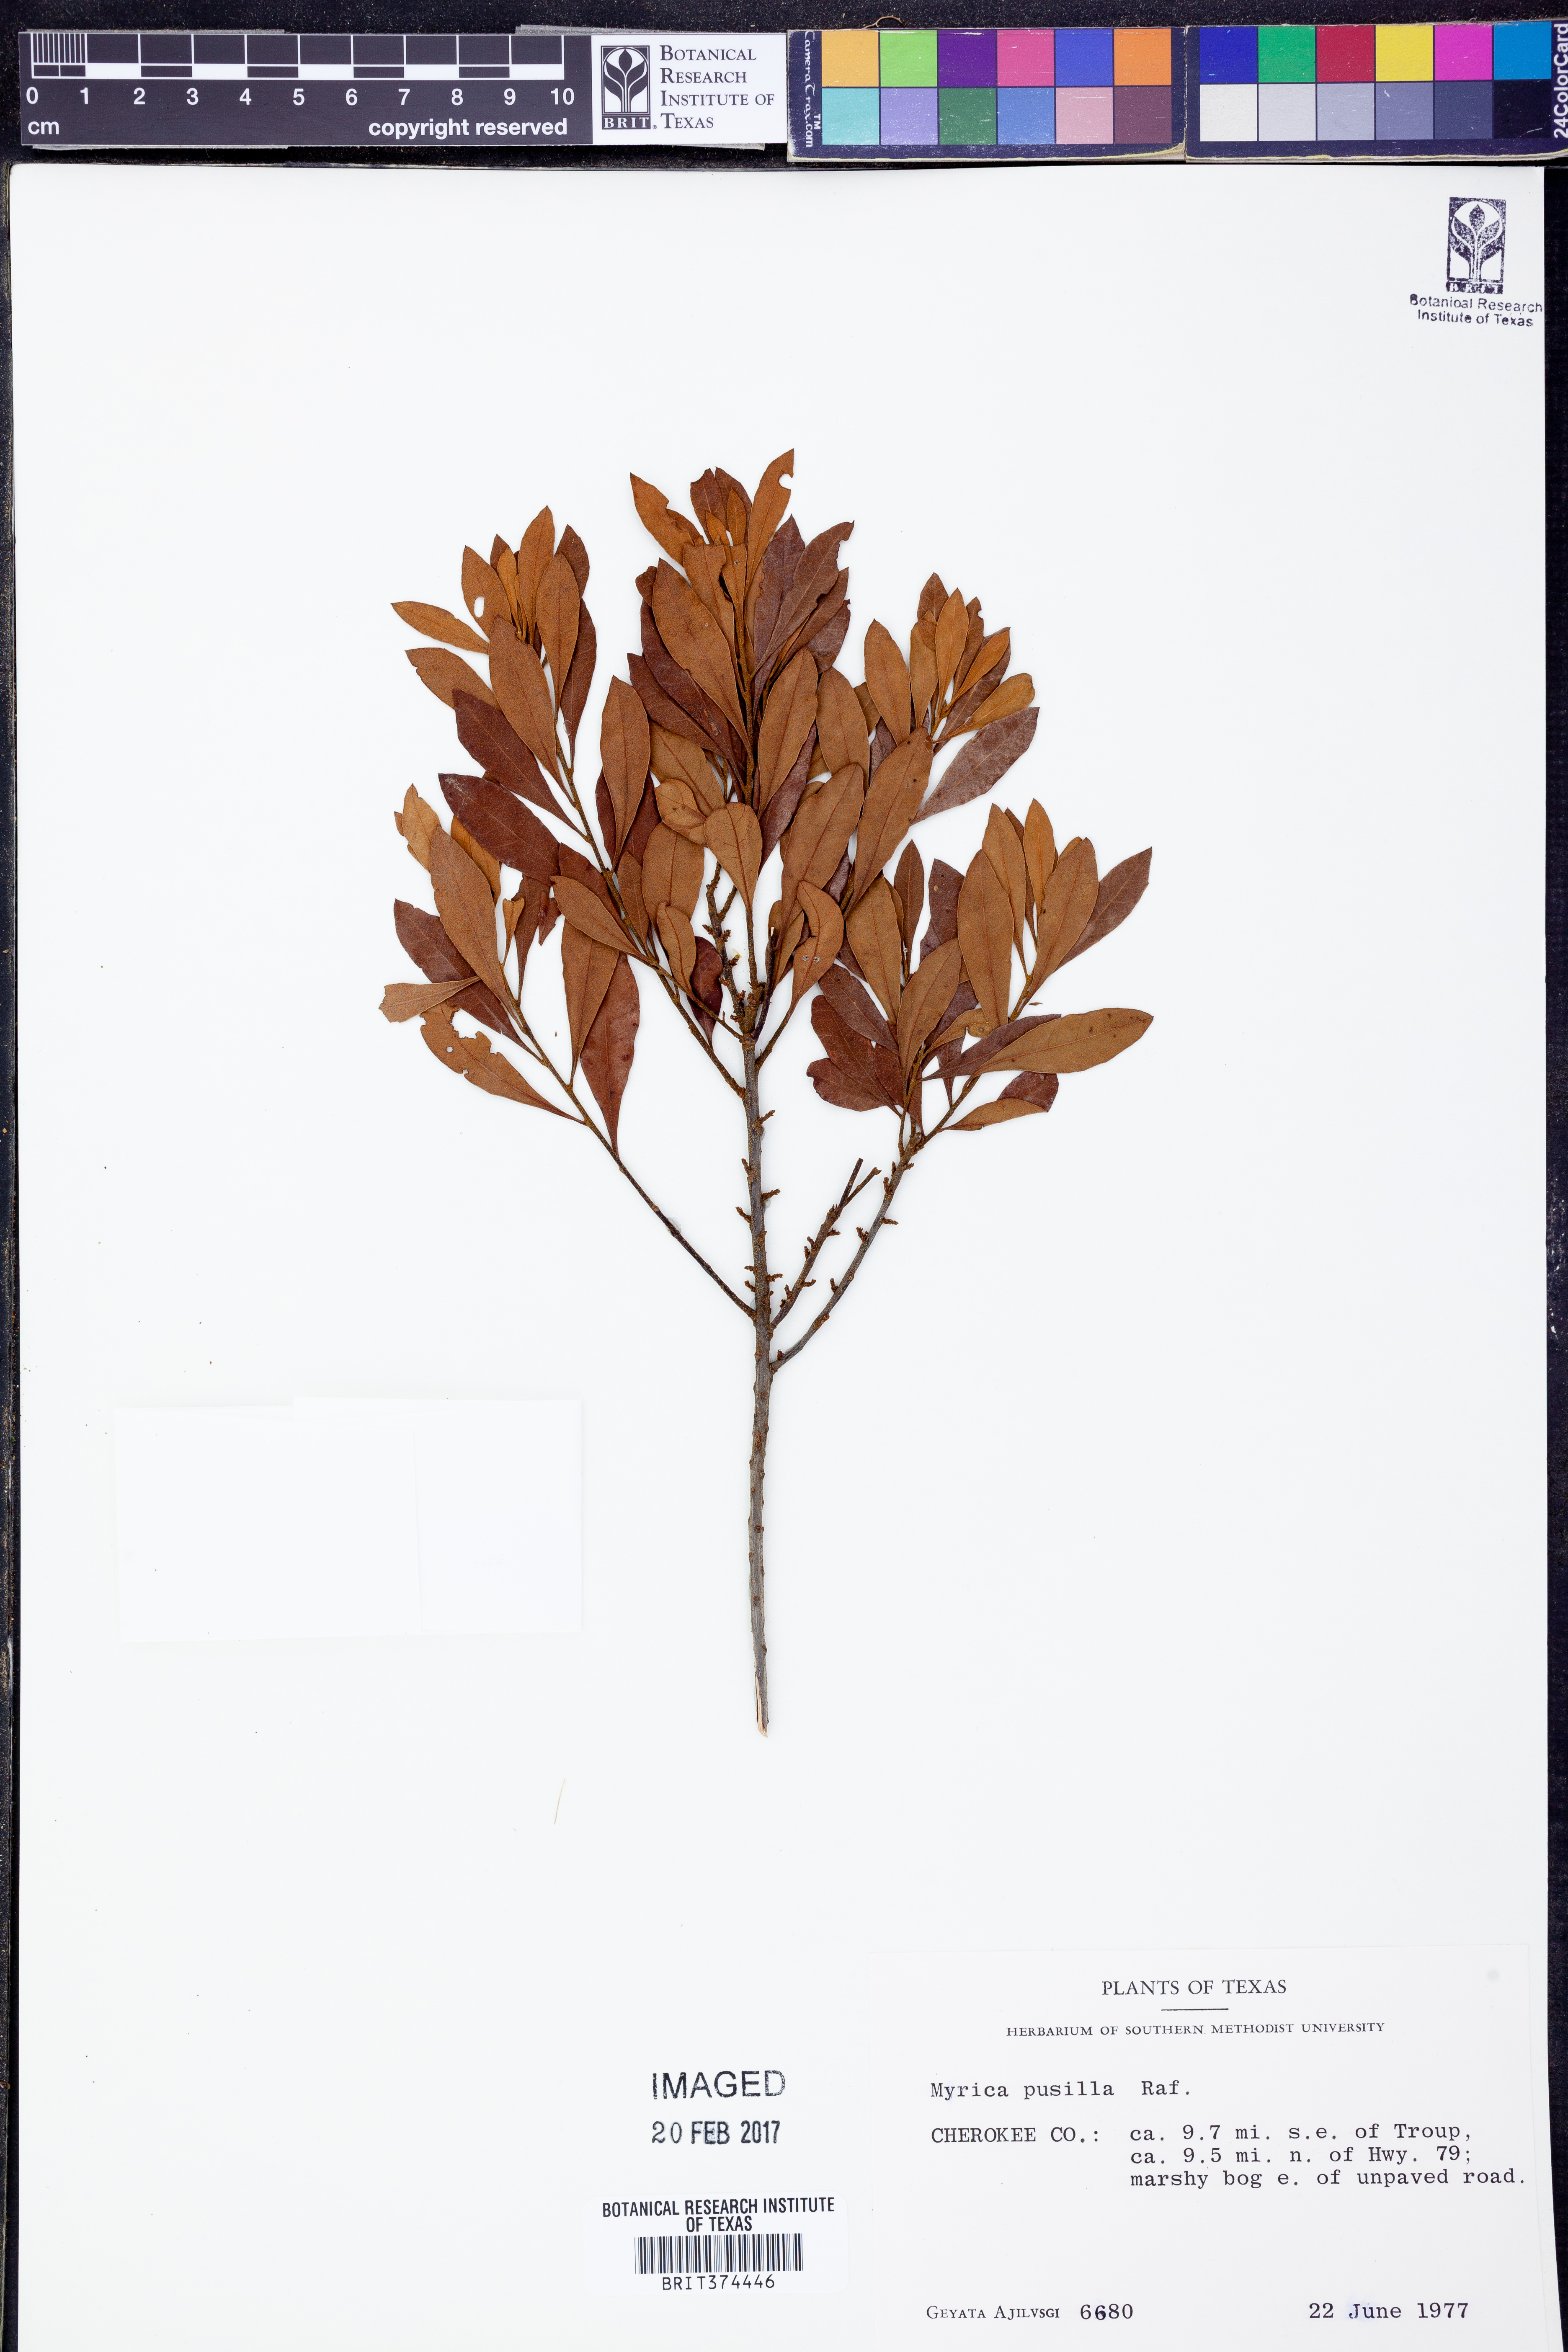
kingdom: Plantae
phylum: Tracheophyta
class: Magnoliopsida
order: Fagales
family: Myricaceae
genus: Morella
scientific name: Morella cerifera
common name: Wax myrtle
